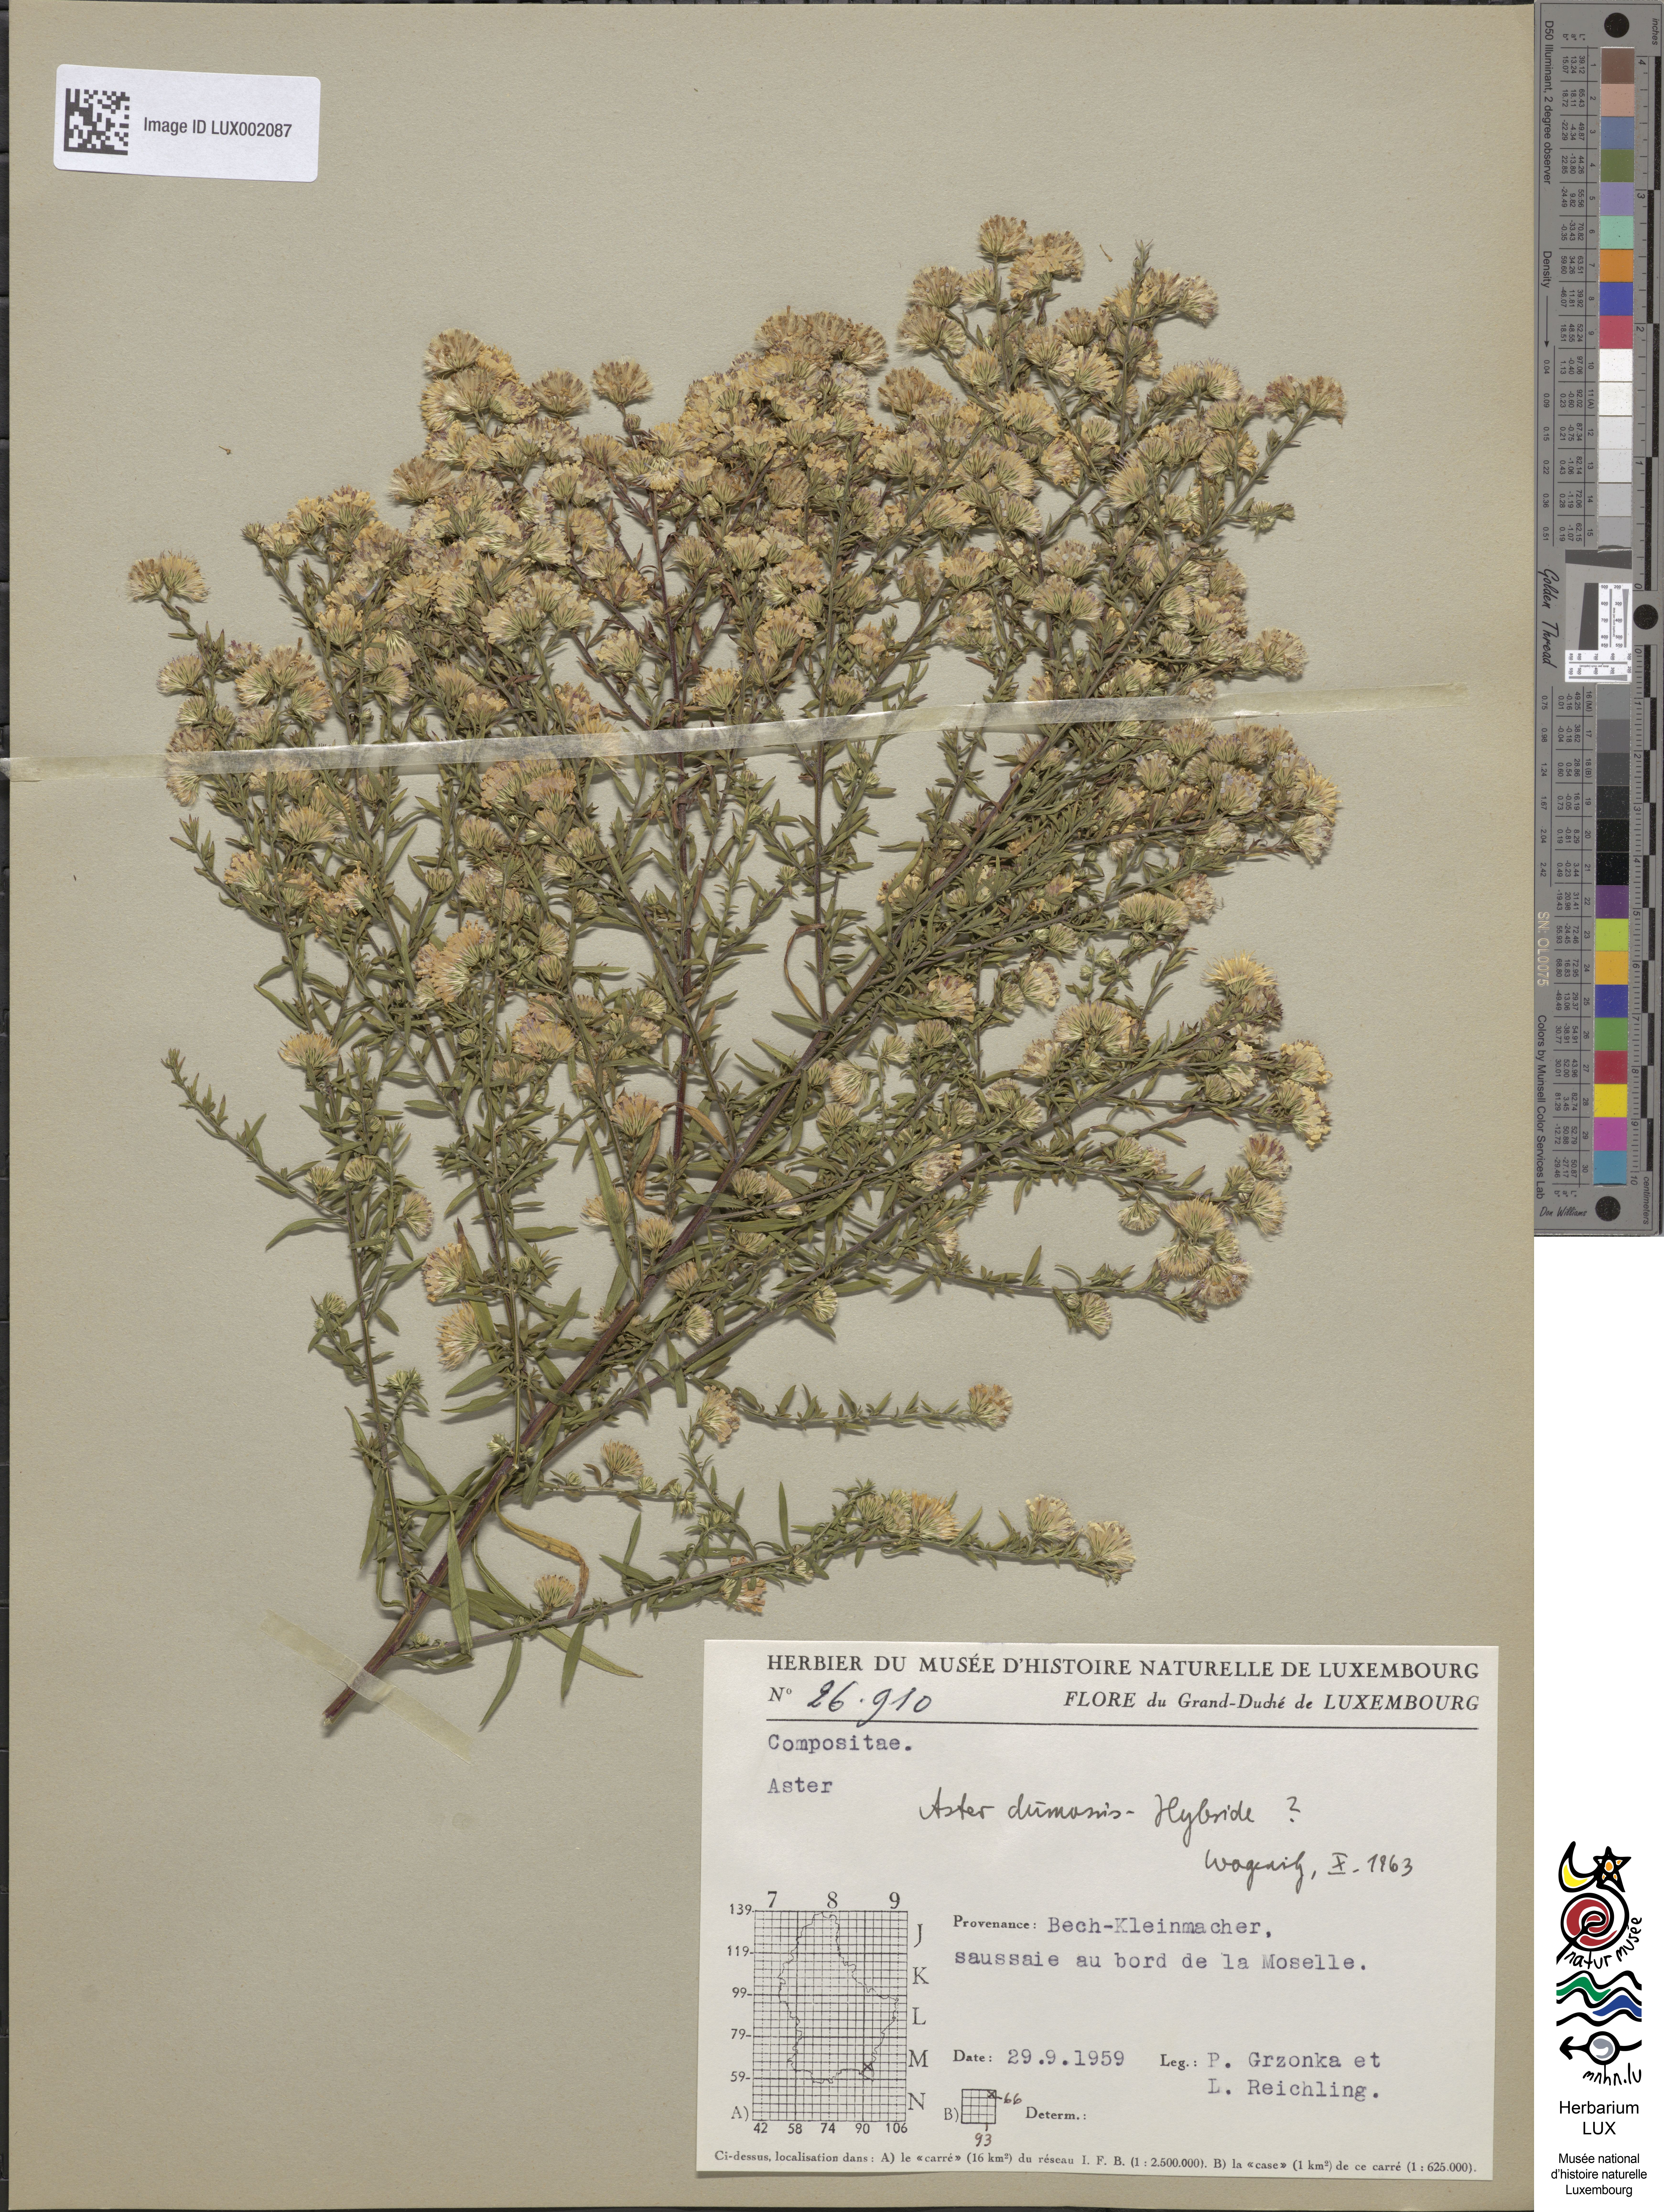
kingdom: Plantae
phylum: Tracheophyta
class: Magnoliopsida
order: Asterales
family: Asteraceae
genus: Symphyotrichum
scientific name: Symphyotrichum dumosum
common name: Bushy aster
